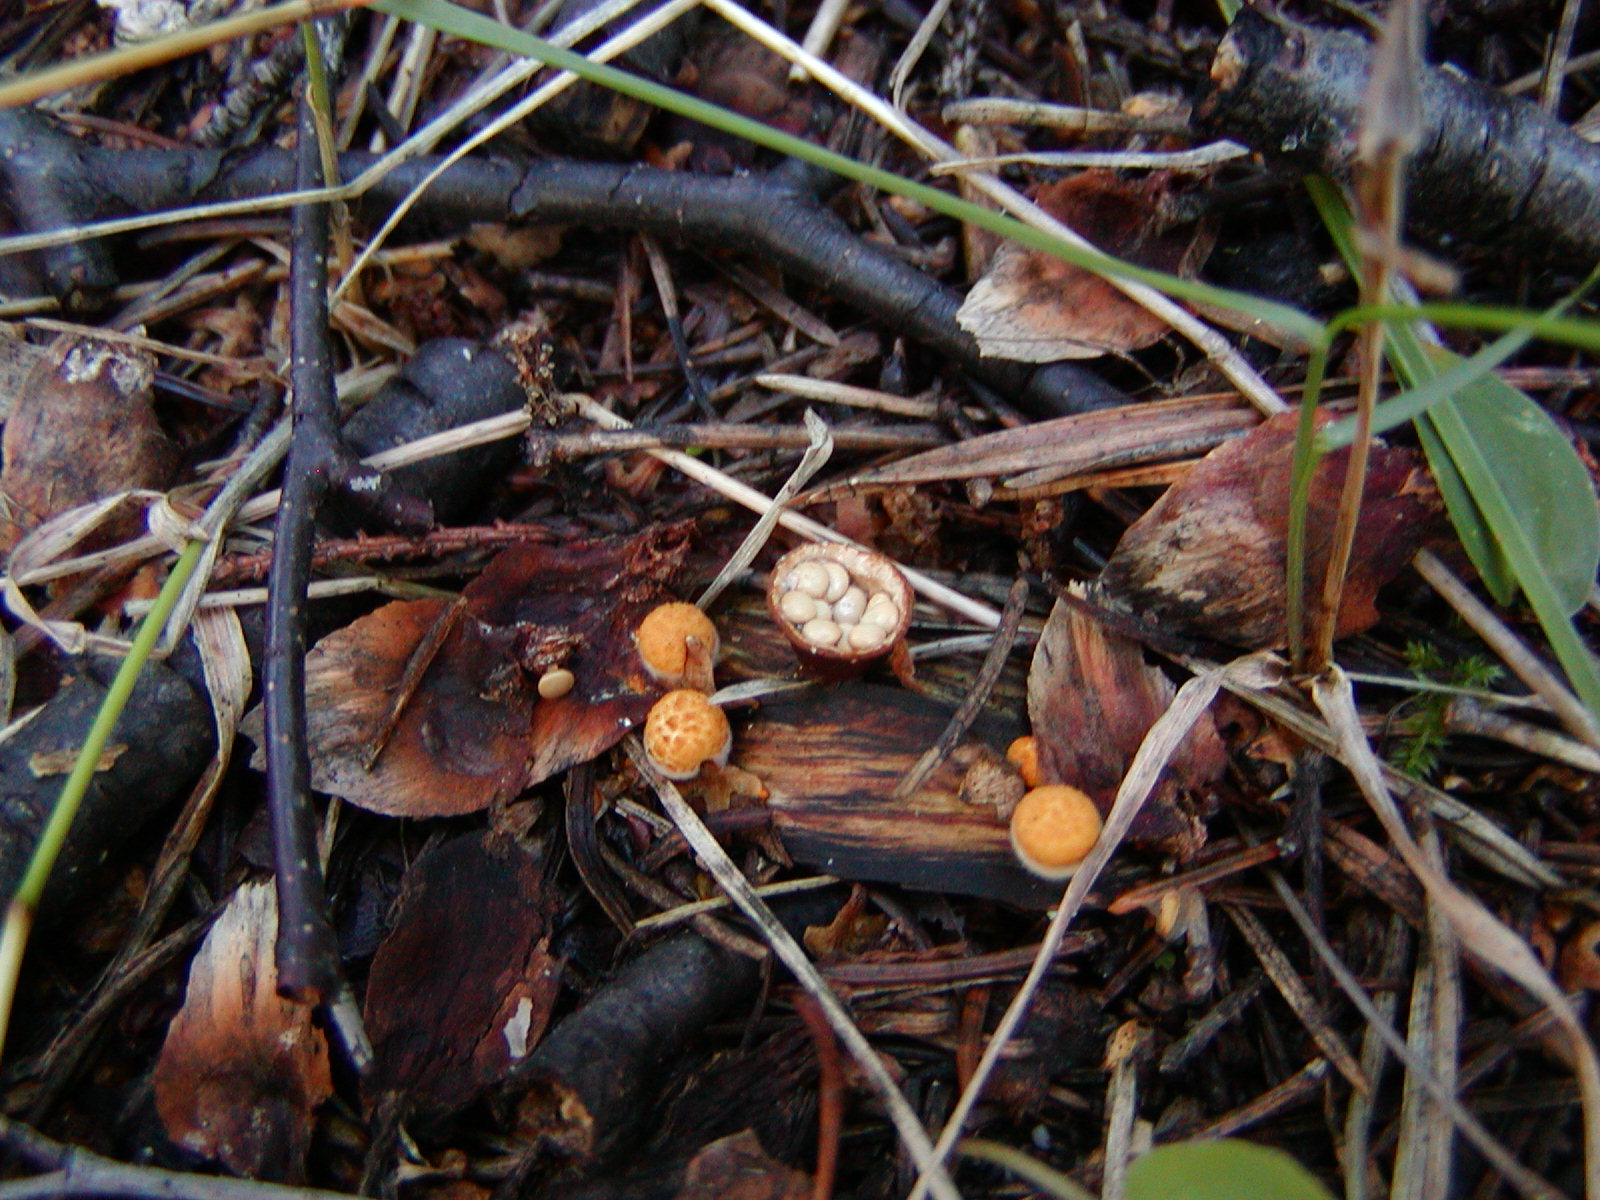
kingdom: Fungi
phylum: Basidiomycota
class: Agaricomycetes
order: Agaricales
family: Nidulariaceae
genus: Crucibulum
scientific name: Crucibulum laeve
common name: Common bird's nest
